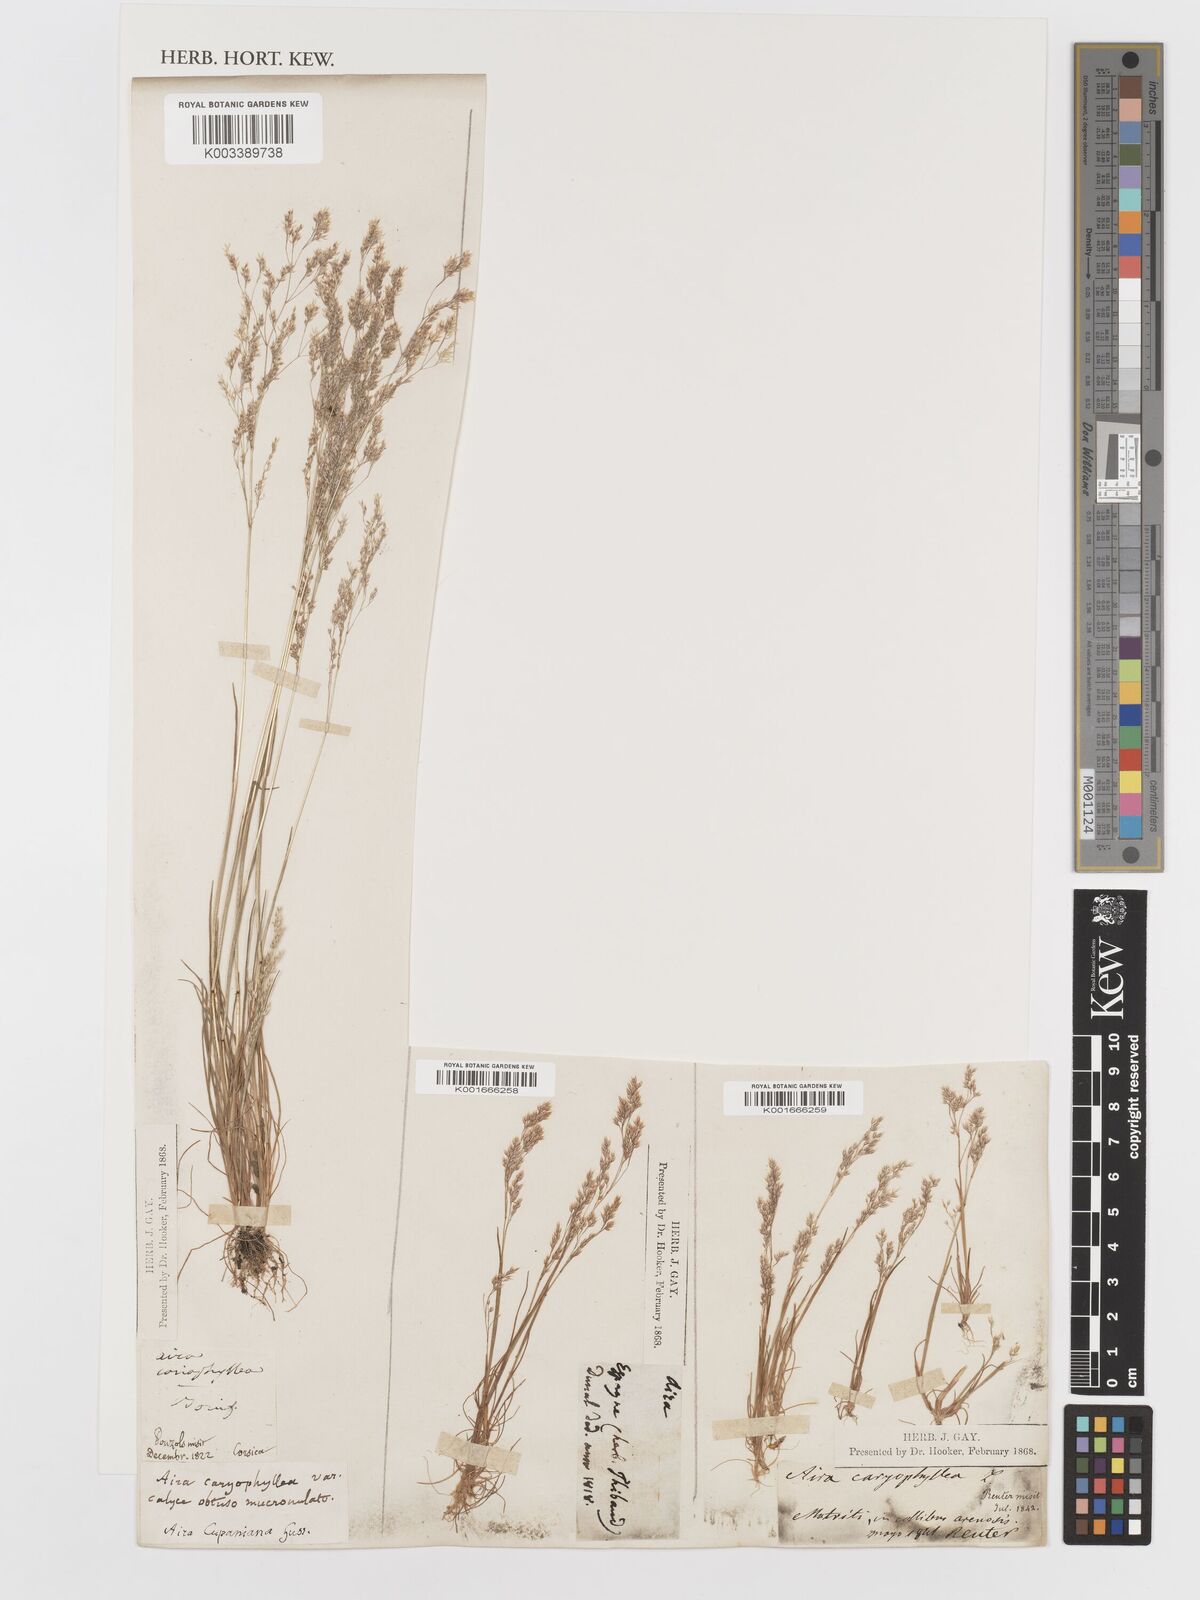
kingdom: Plantae
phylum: Tracheophyta
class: Liliopsida
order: Poales
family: Poaceae
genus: Aira
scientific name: Aira cupaniana
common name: Silver hairgrass
